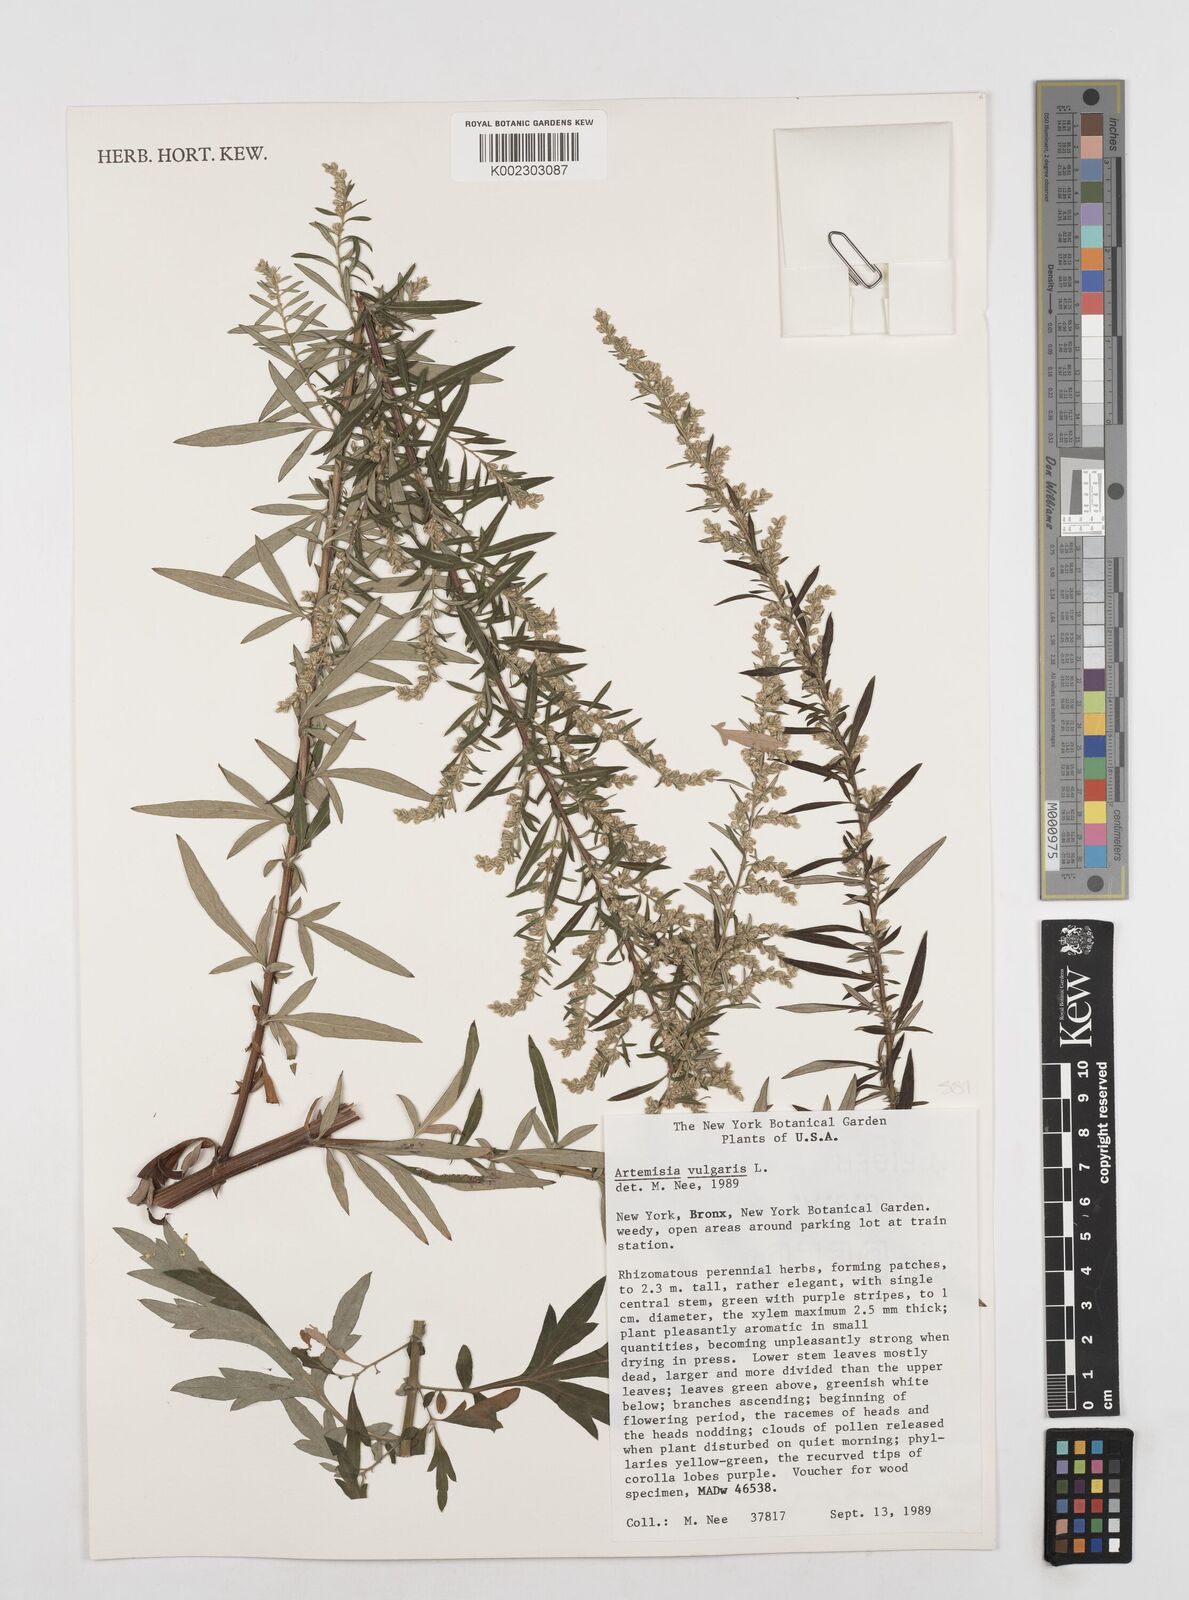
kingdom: Plantae
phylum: Tracheophyta
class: Magnoliopsida
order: Asterales
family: Asteraceae
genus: Artemisia
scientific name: Artemisia vulgaris
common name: Mugwort
